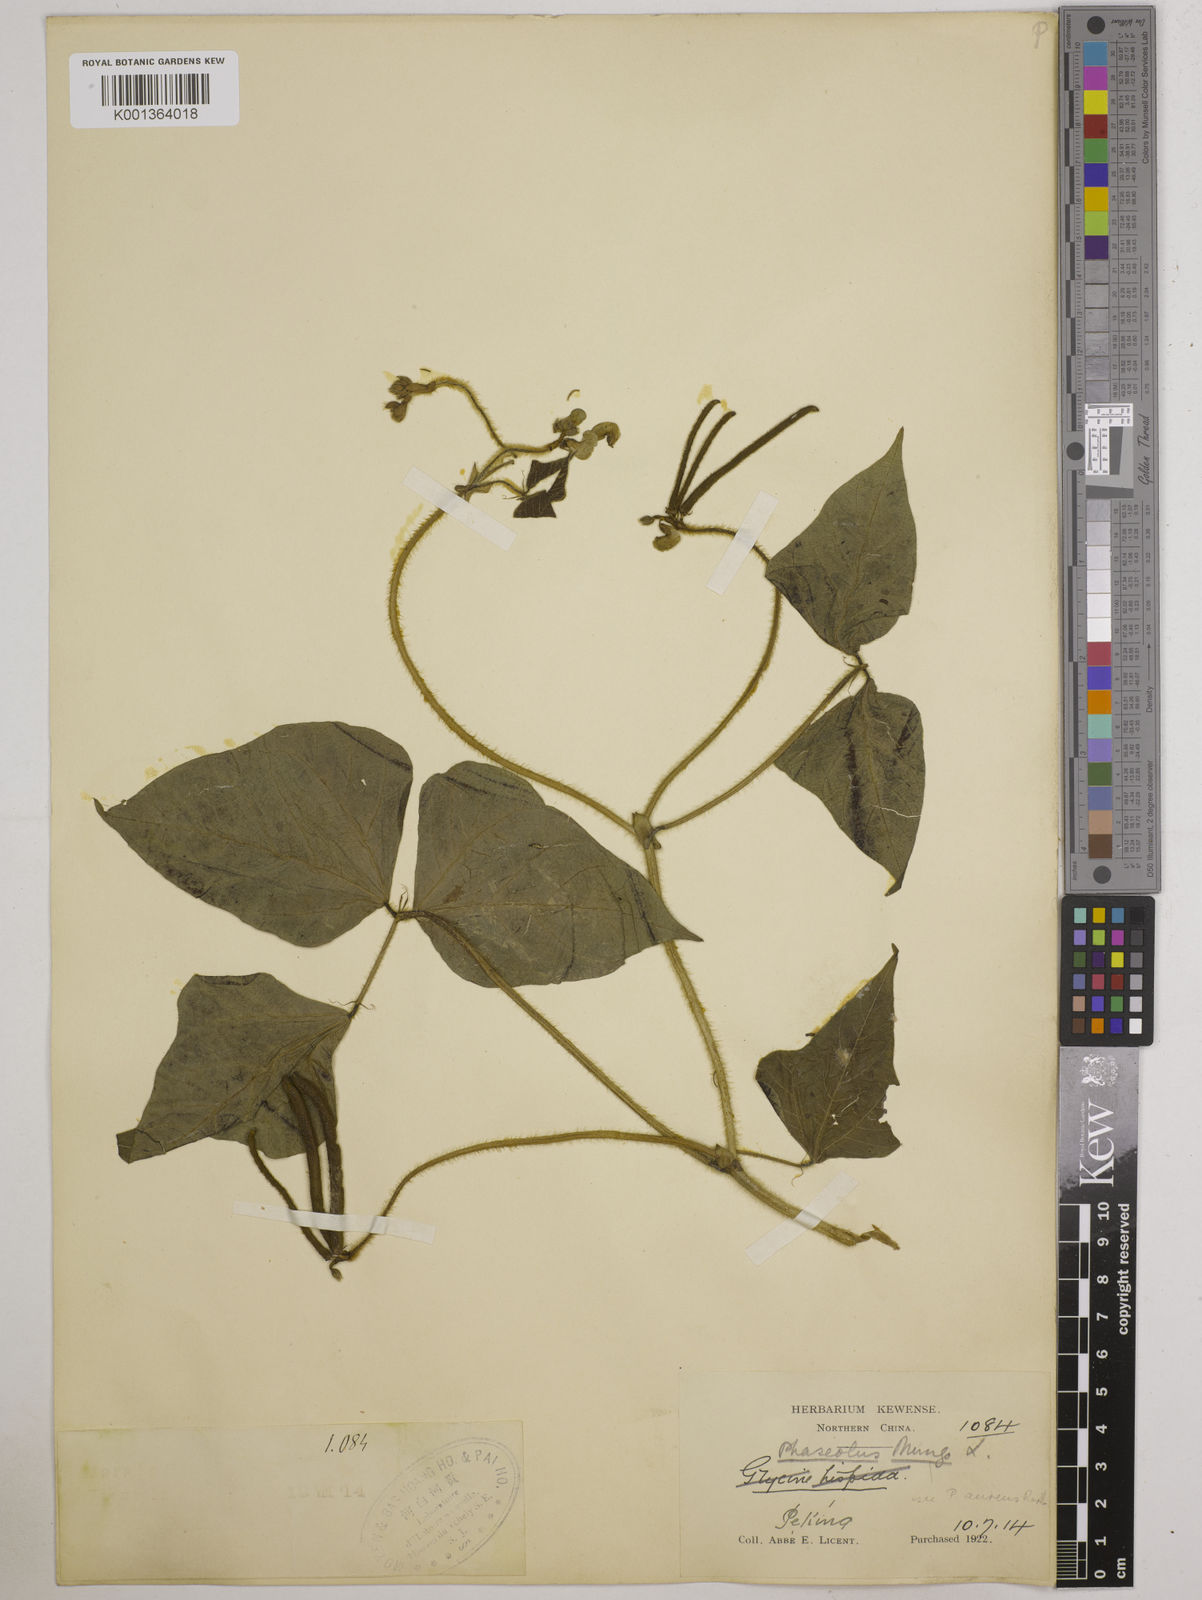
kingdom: Plantae
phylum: Tracheophyta
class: Magnoliopsida
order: Fabales
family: Fabaceae
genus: Vigna
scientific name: Vigna radiata
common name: Mung-bean
